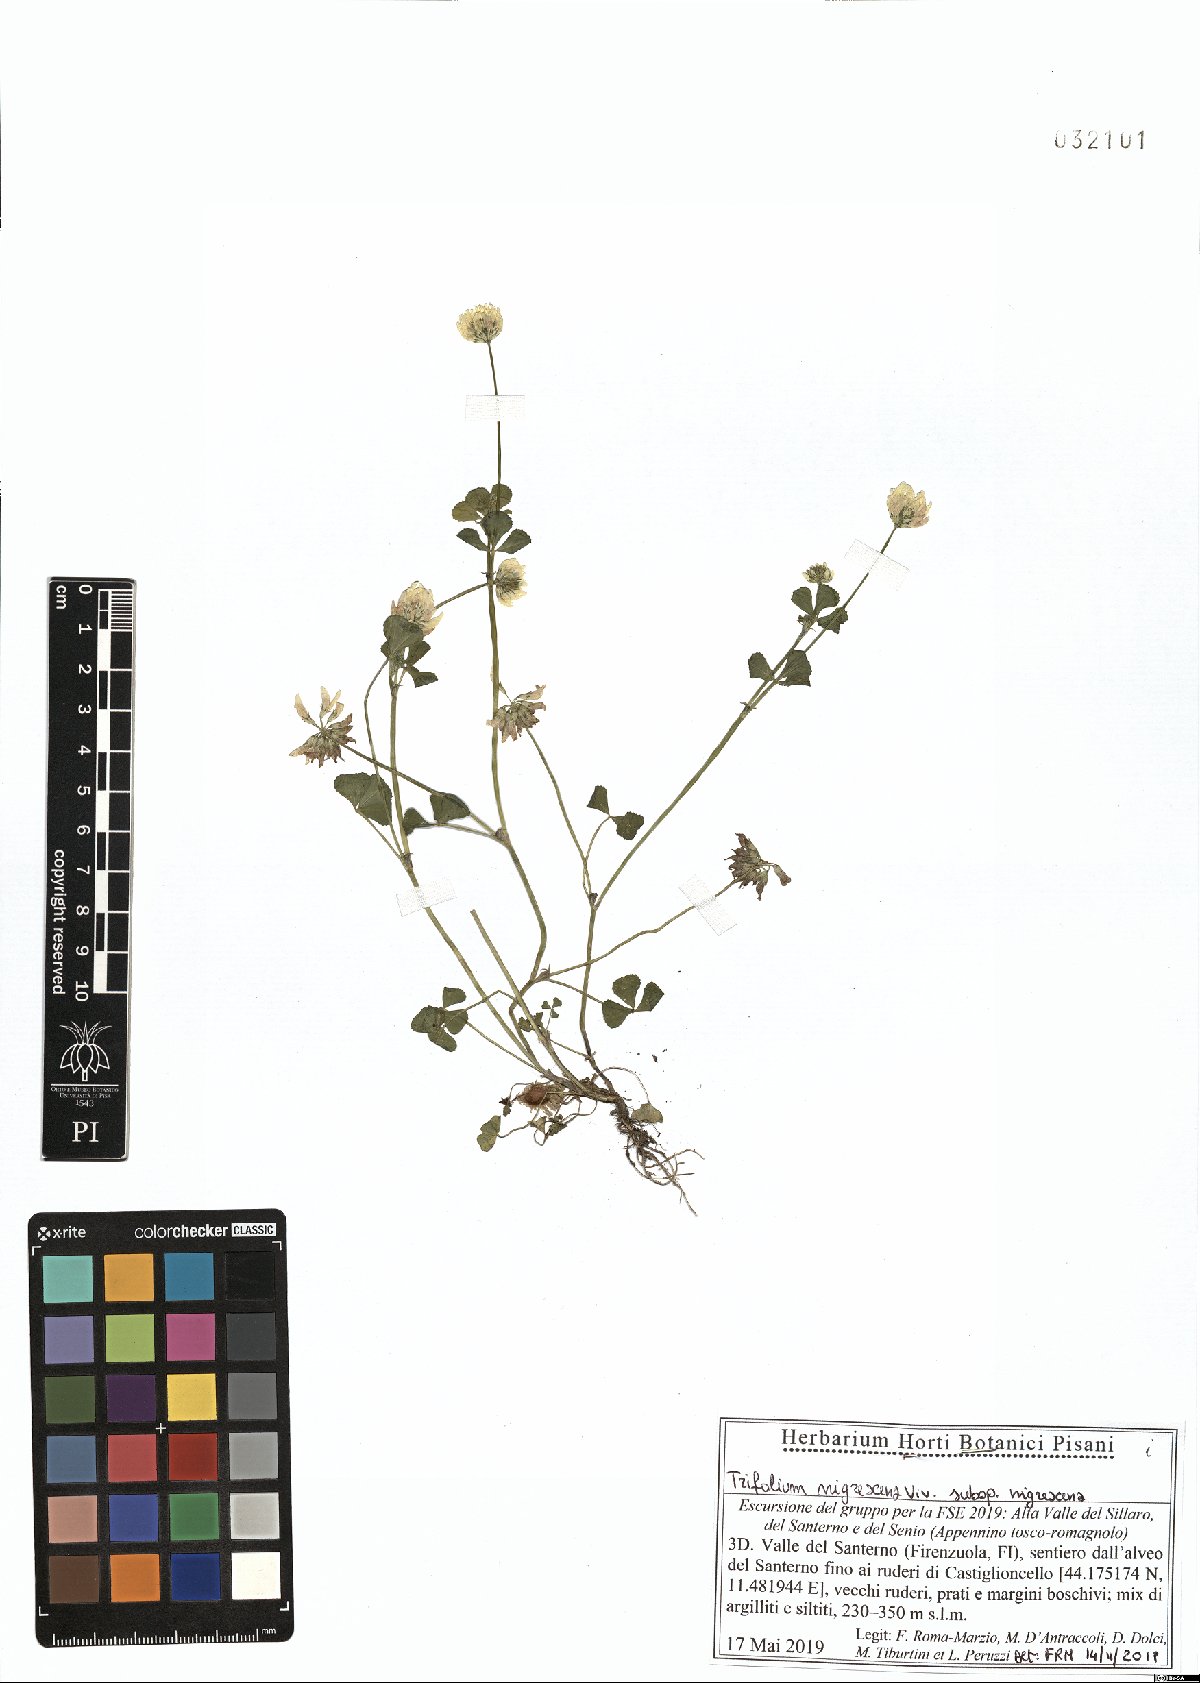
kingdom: Plantae
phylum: Tracheophyta
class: Magnoliopsida
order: Fabales
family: Fabaceae
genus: Trifolium
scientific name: Trifolium nigrescens
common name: Small white clover
